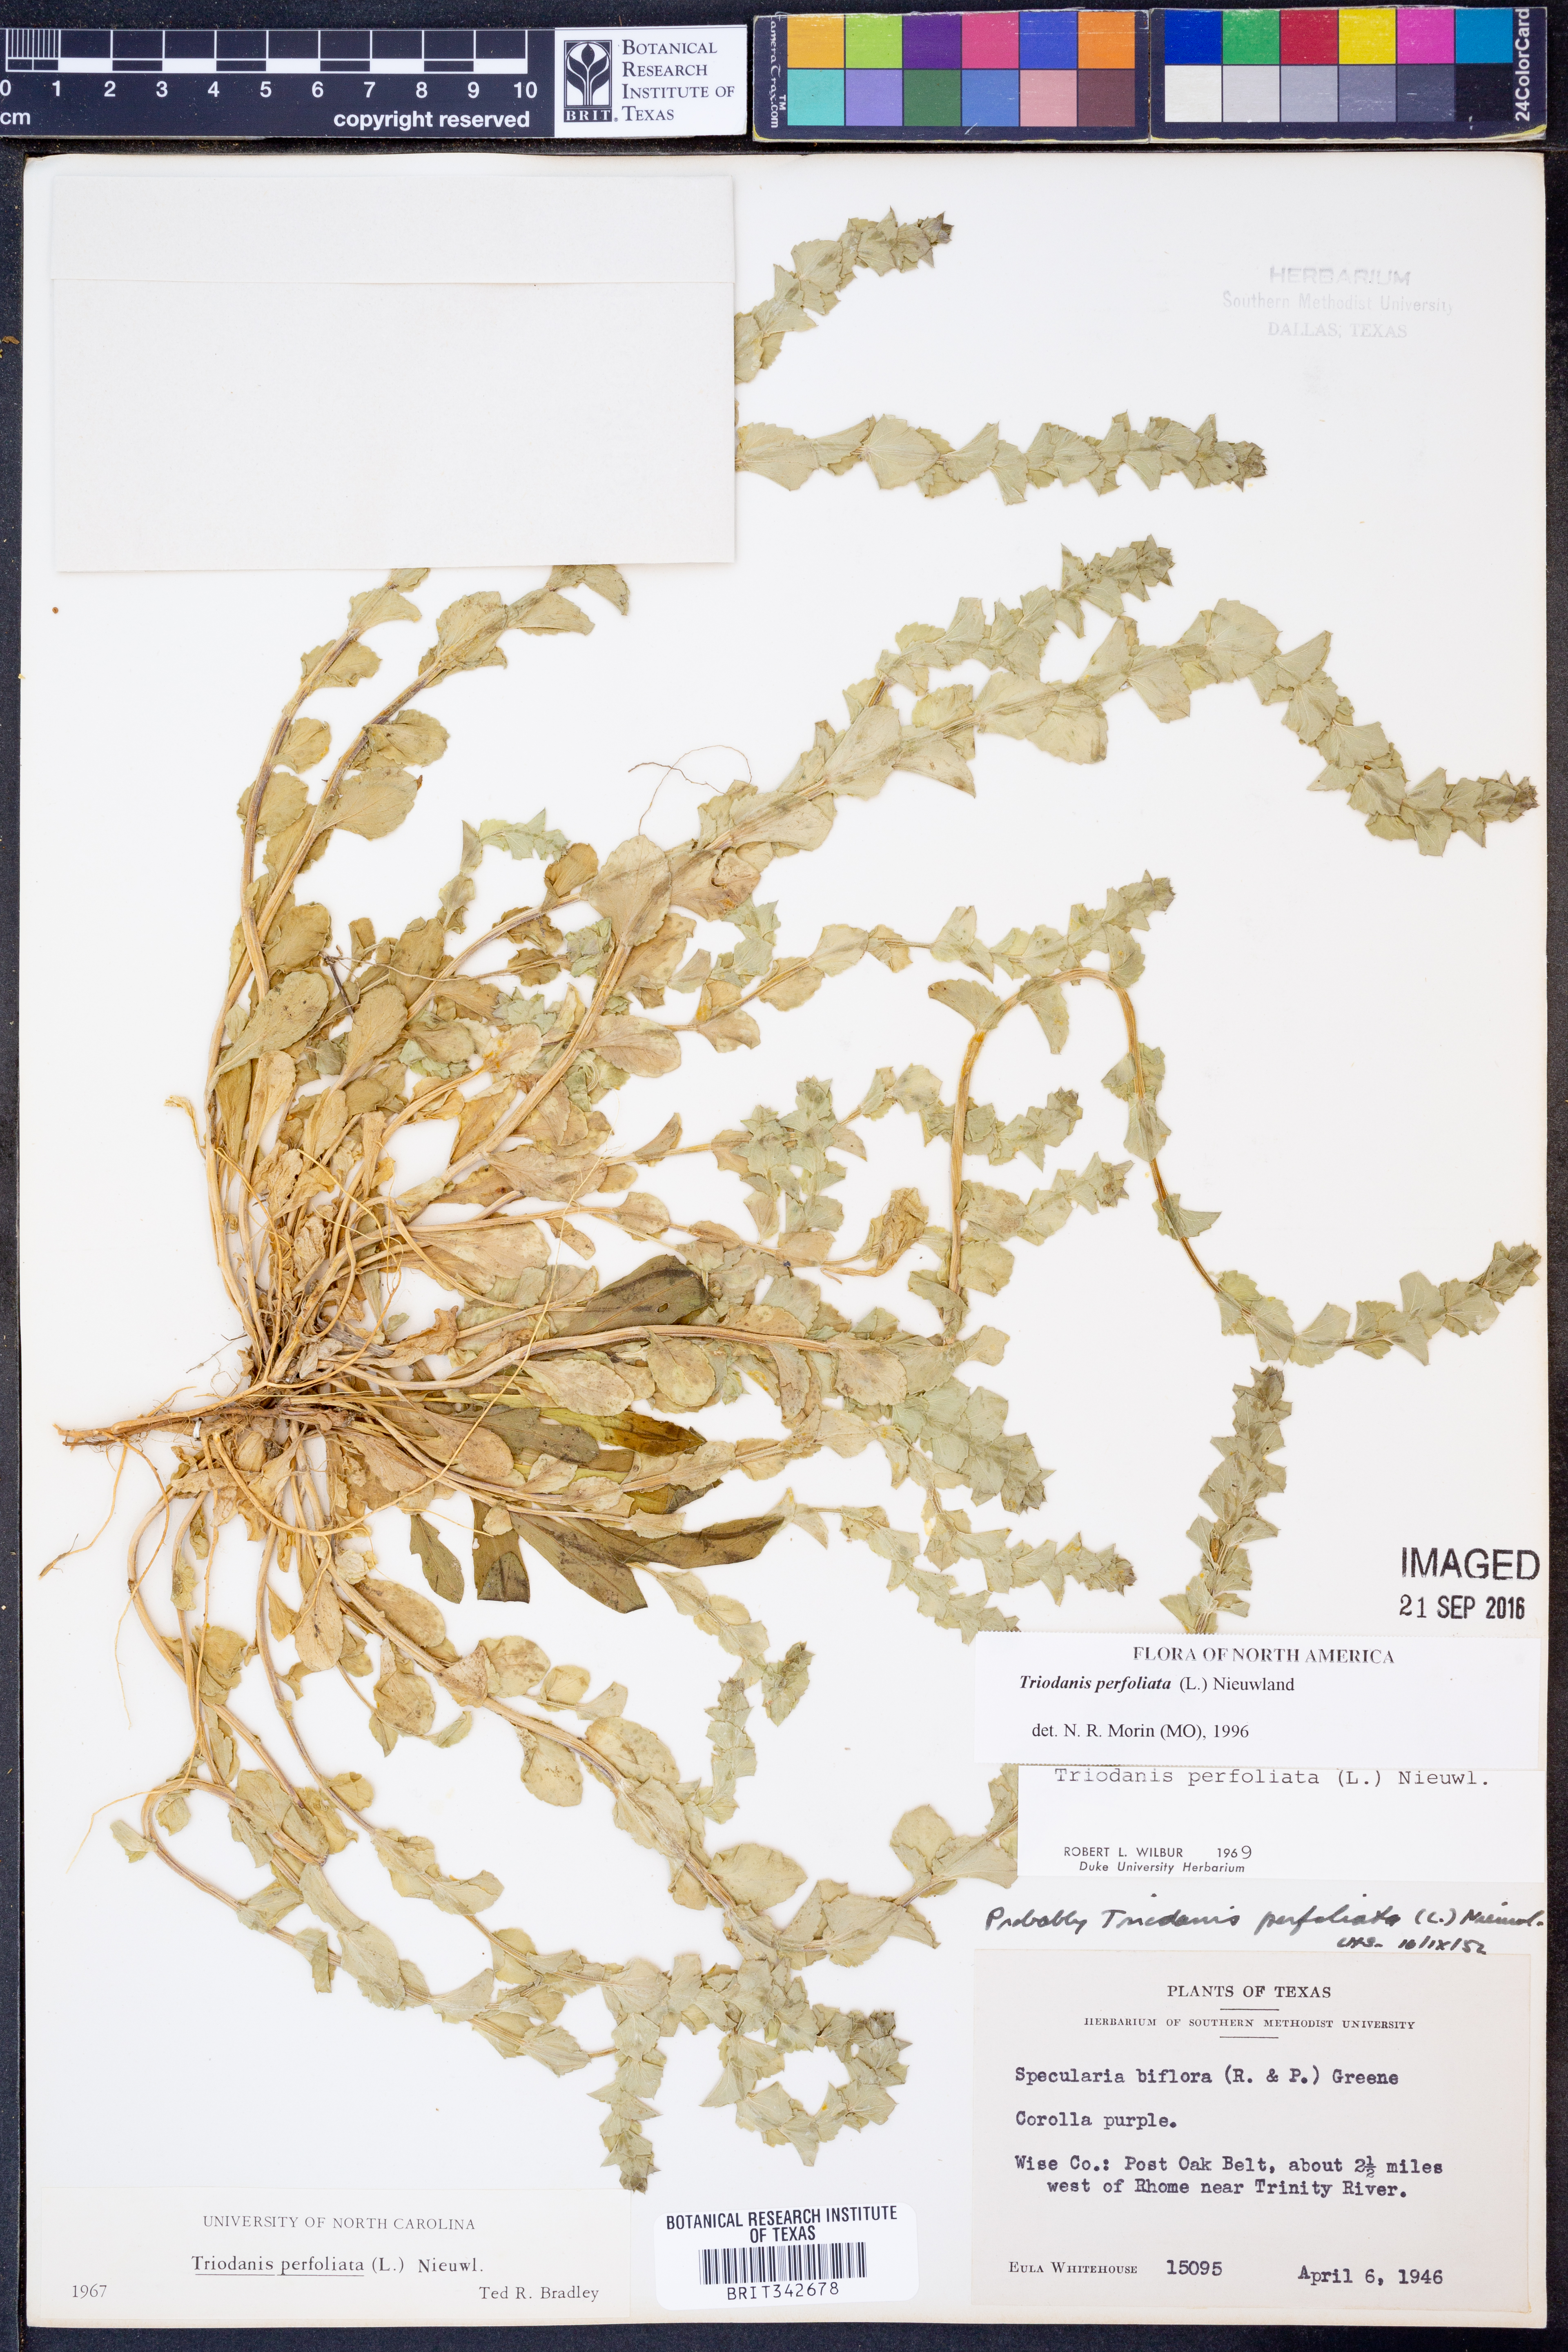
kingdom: Plantae
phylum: Tracheophyta
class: Magnoliopsida
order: Asterales
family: Campanulaceae
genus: Triodanis
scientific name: Triodanis perfoliata
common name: Clasping venus' looking-glass
